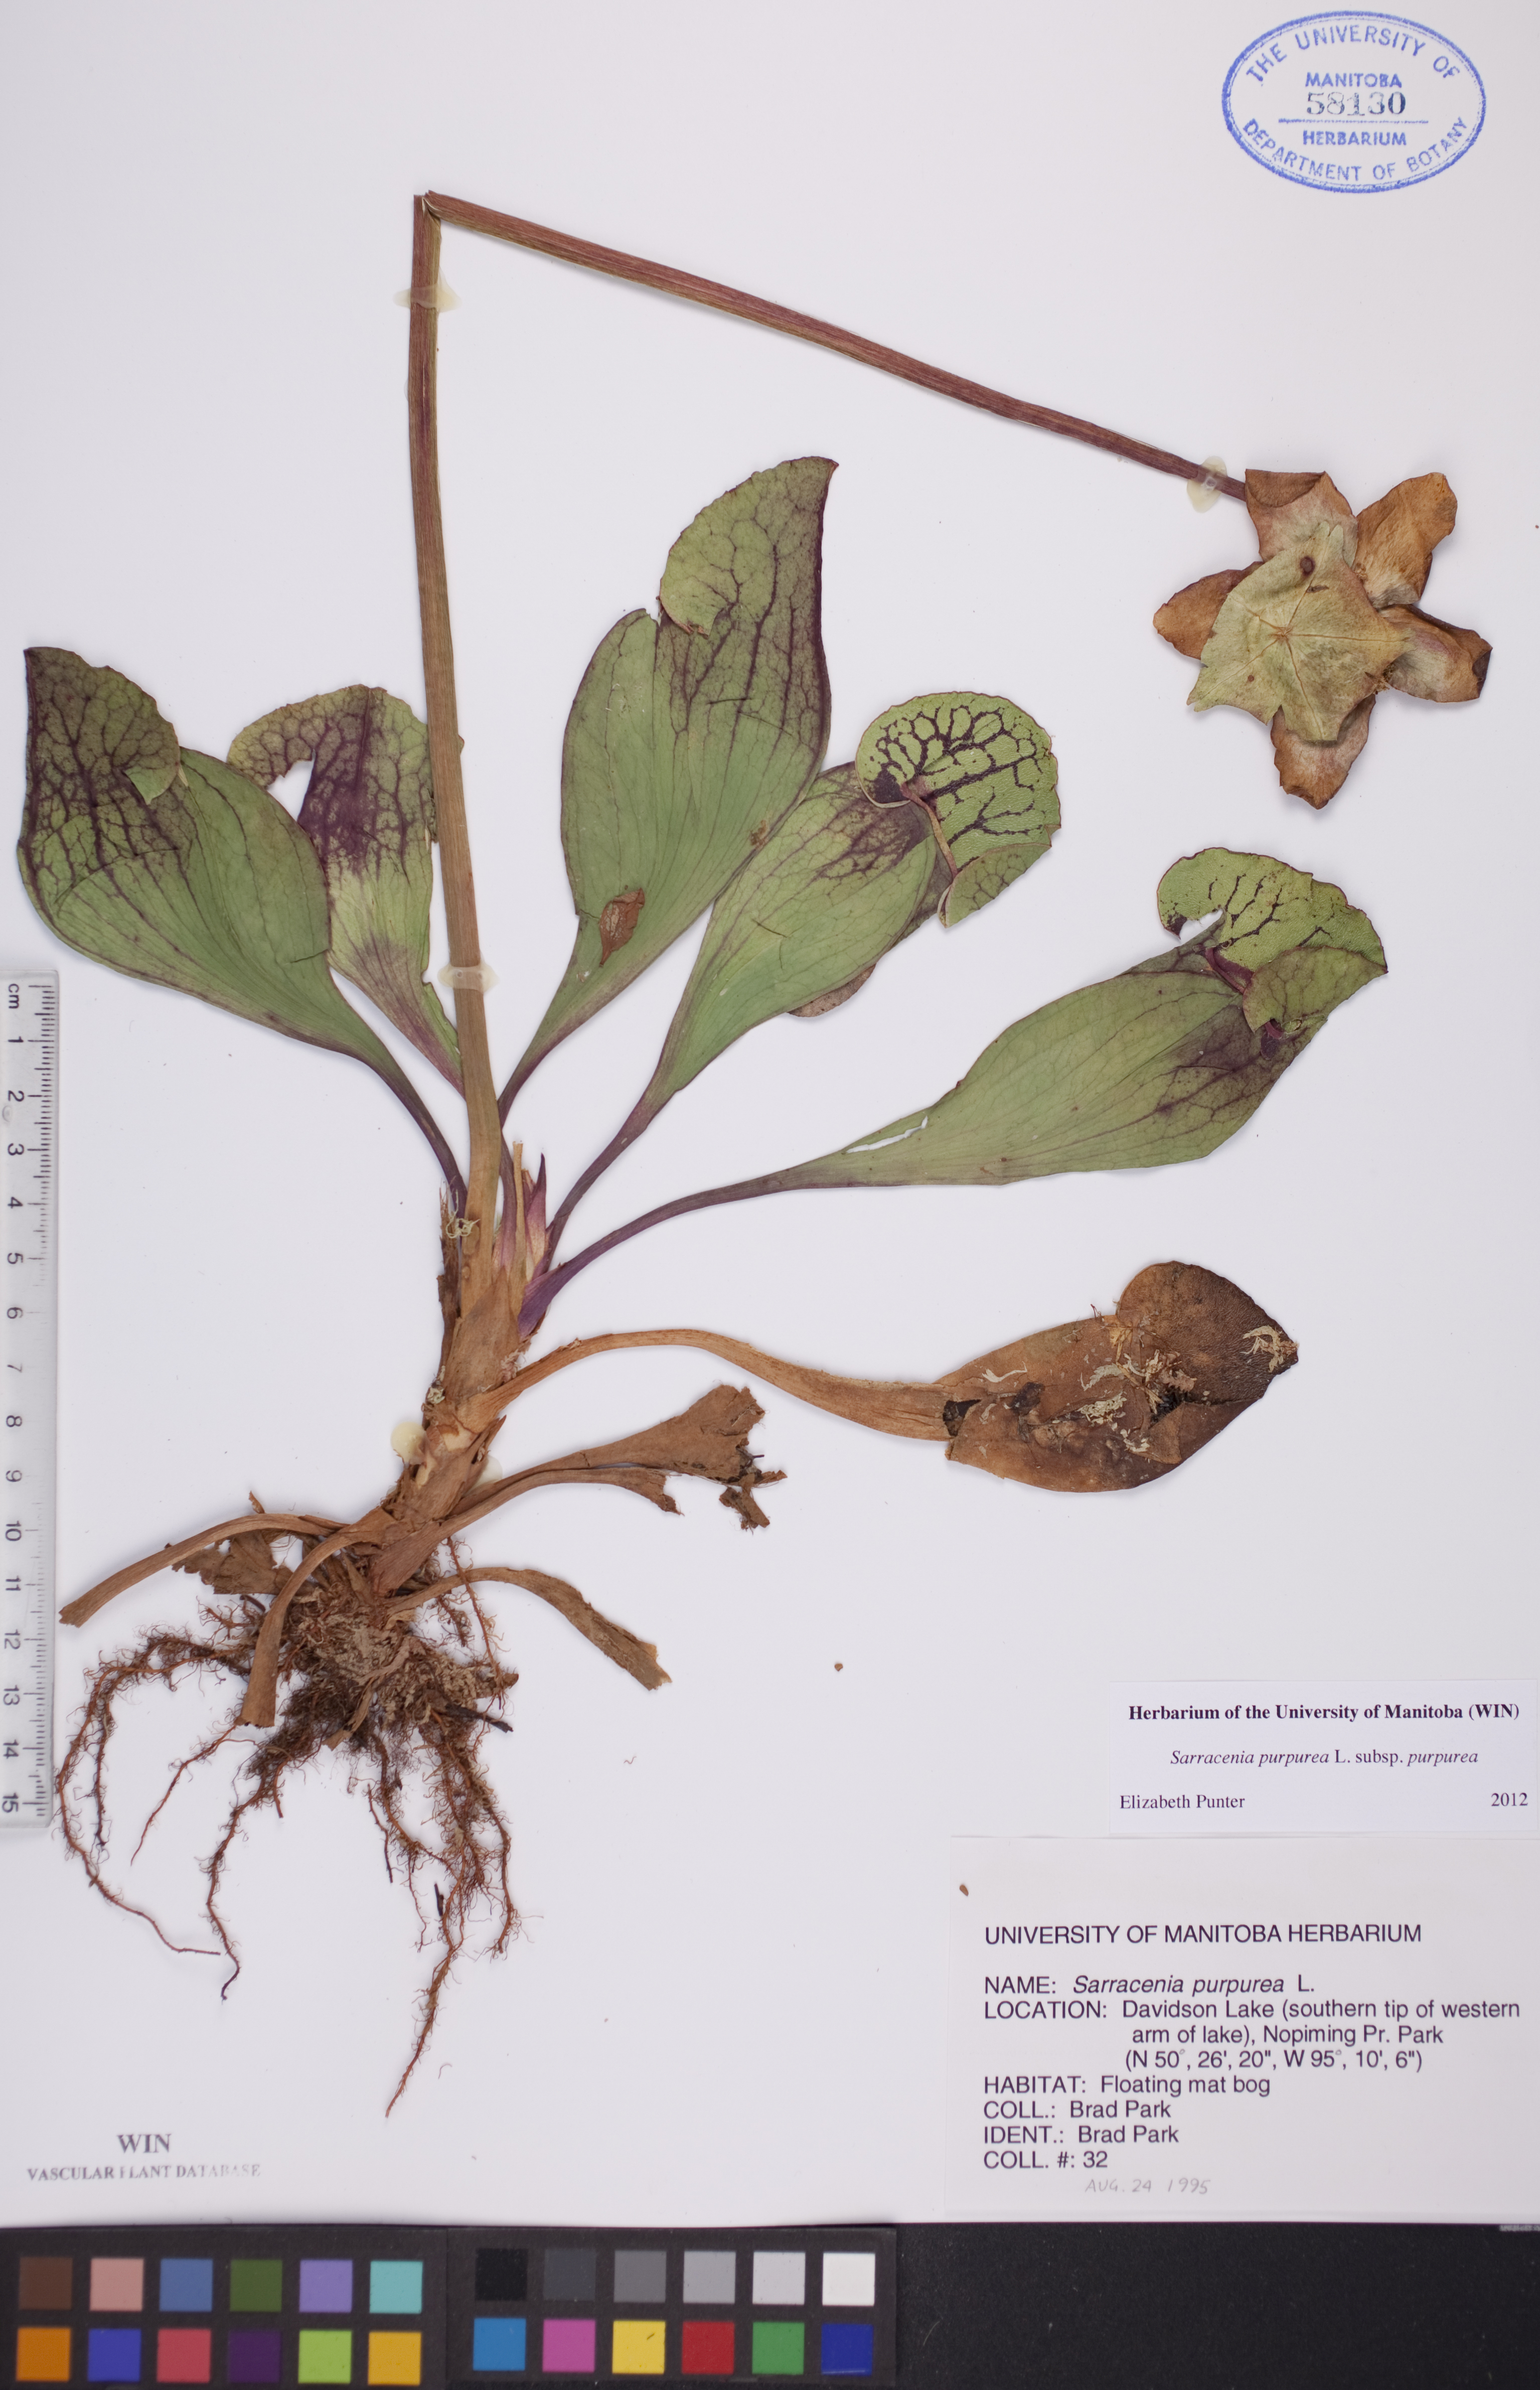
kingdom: Plantae
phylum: Tracheophyta
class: Magnoliopsida
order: Ericales
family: Sarraceniaceae
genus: Sarracenia
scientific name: Sarracenia purpurea
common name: Pitcherplant
